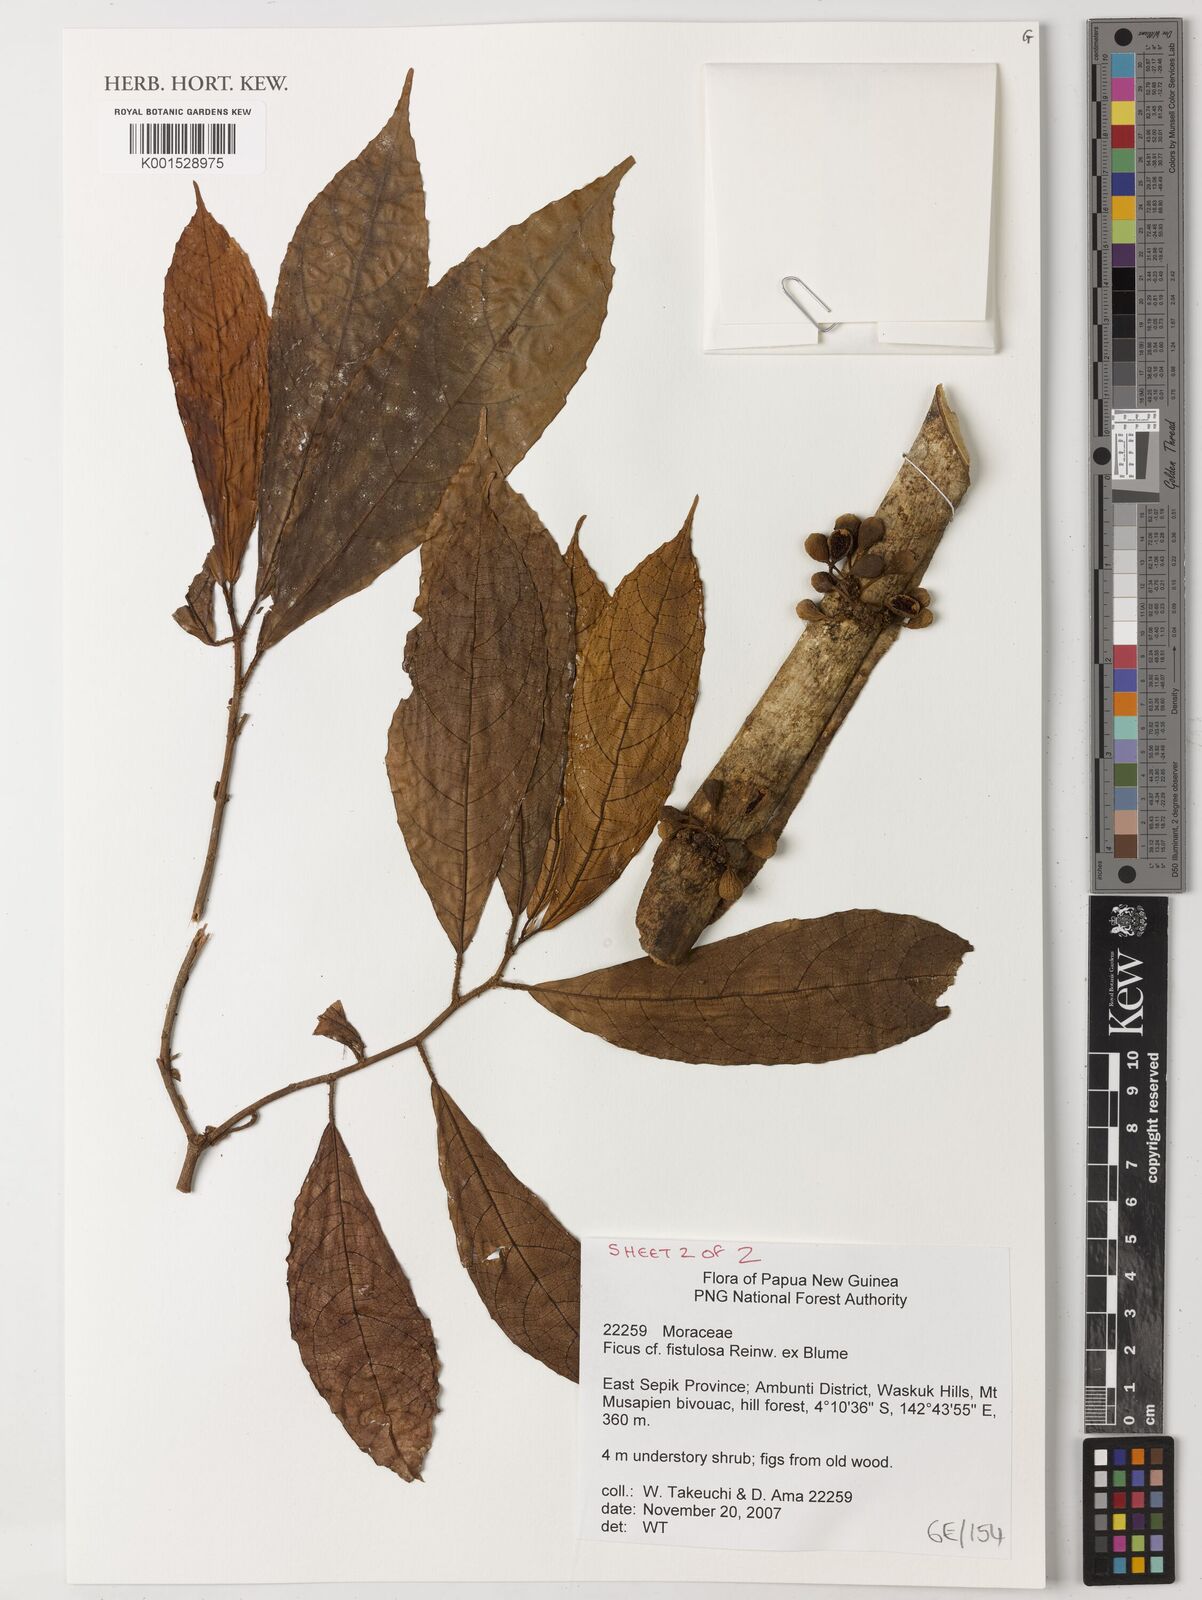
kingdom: Plantae
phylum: Tracheophyta
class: Magnoliopsida
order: Rosales
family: Moraceae
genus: Ficus
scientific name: Ficus fistulosa
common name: Figs
